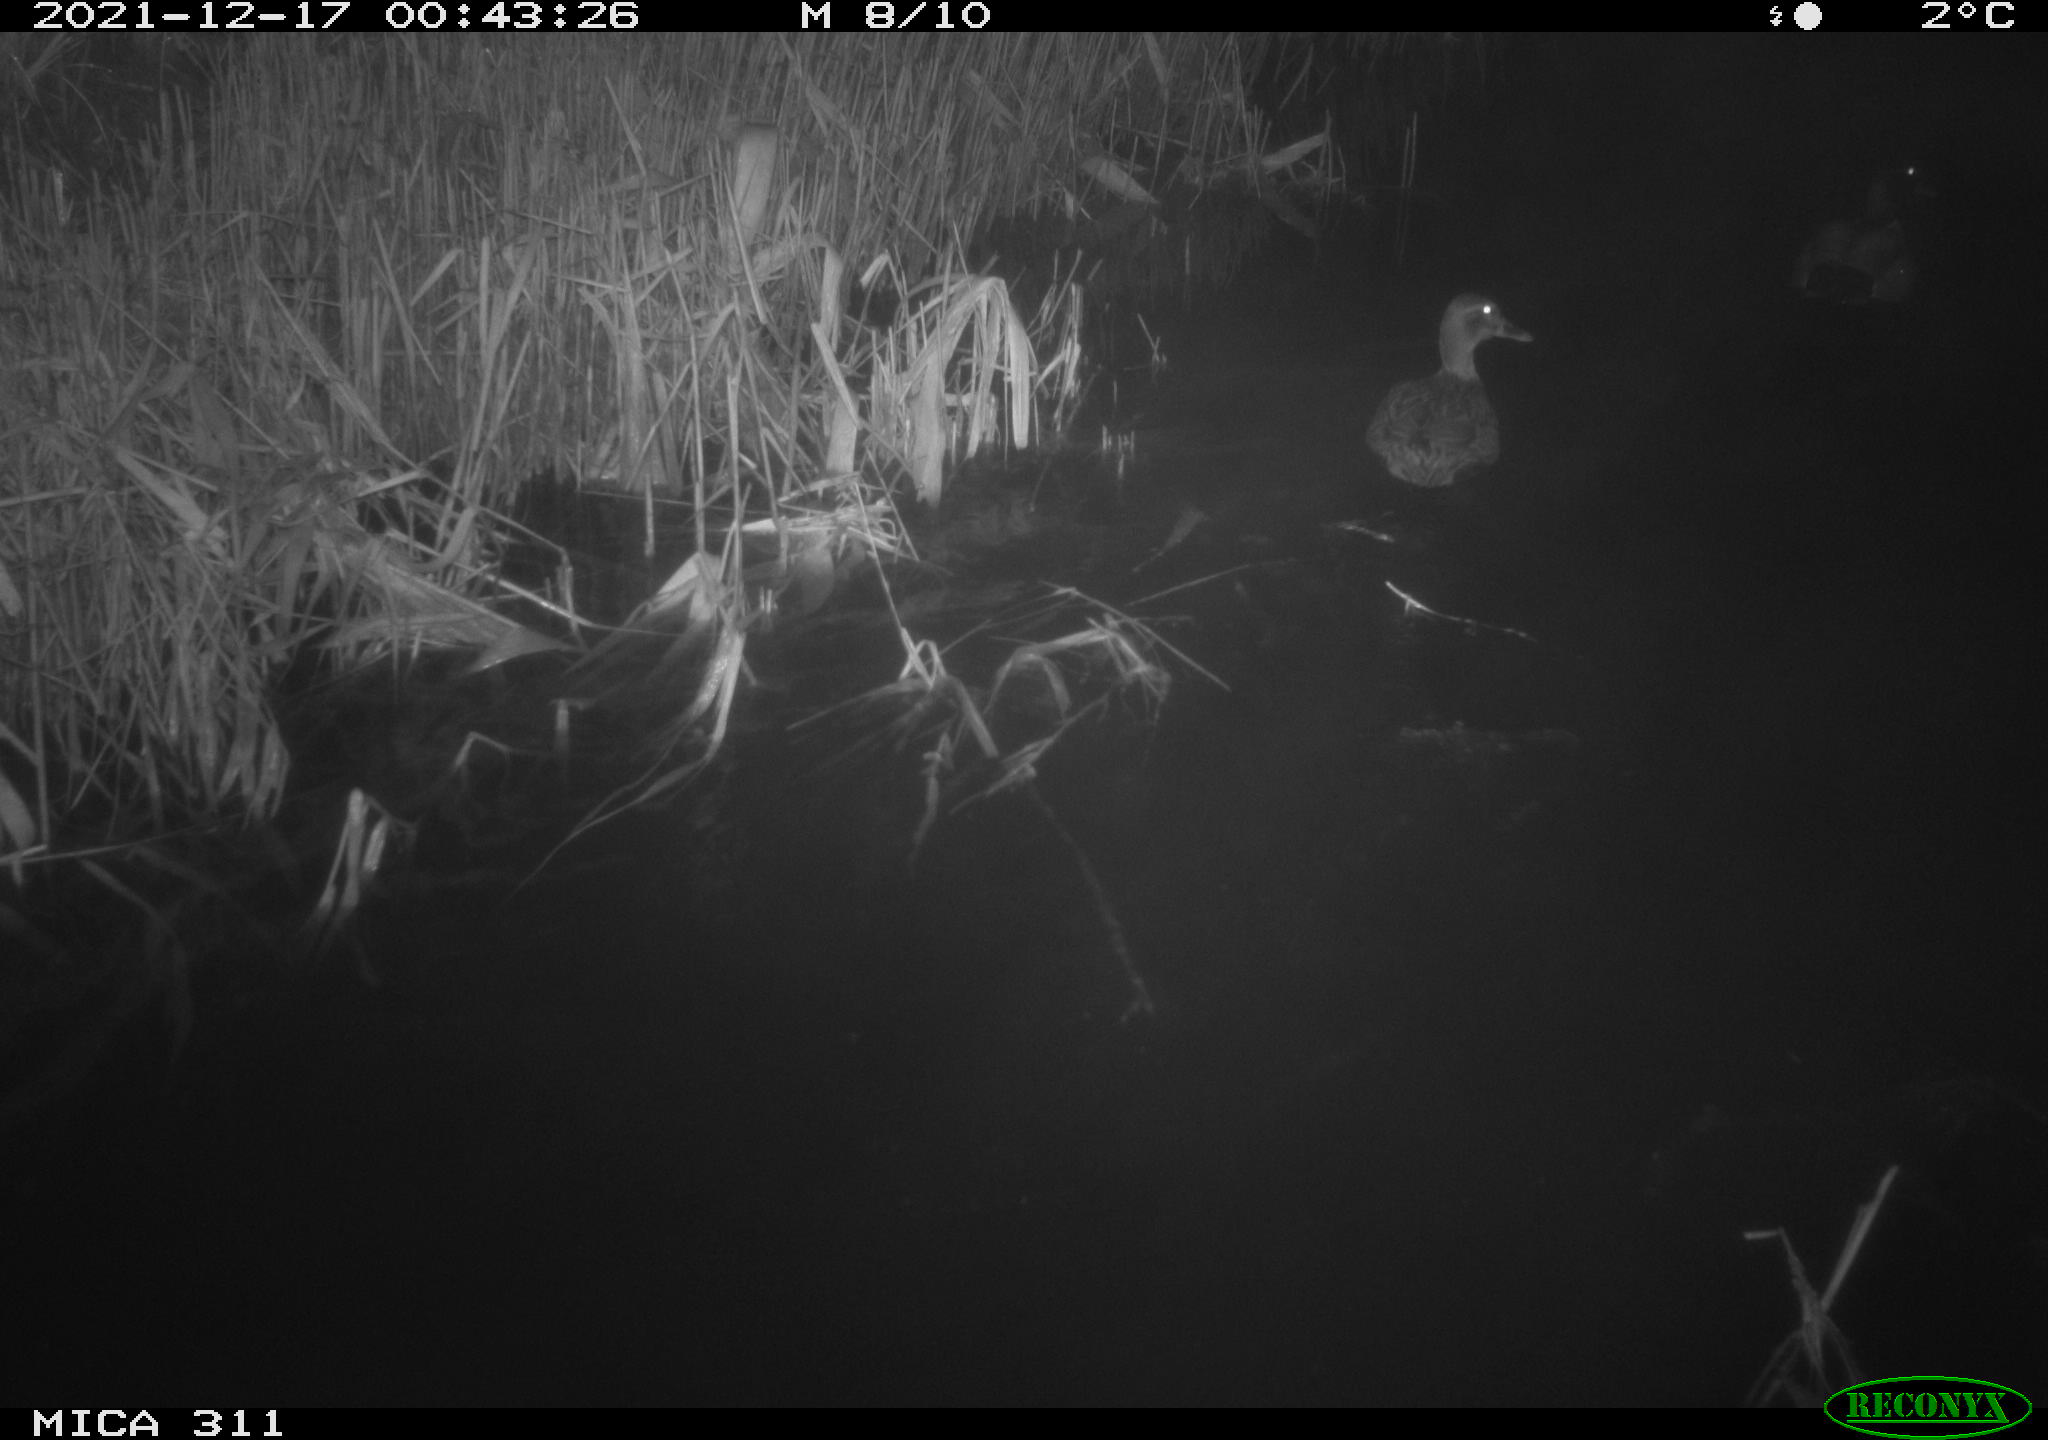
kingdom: Animalia
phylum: Chordata
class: Aves
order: Anseriformes
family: Anatidae
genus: Anas
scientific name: Anas platyrhynchos
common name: Mallard
